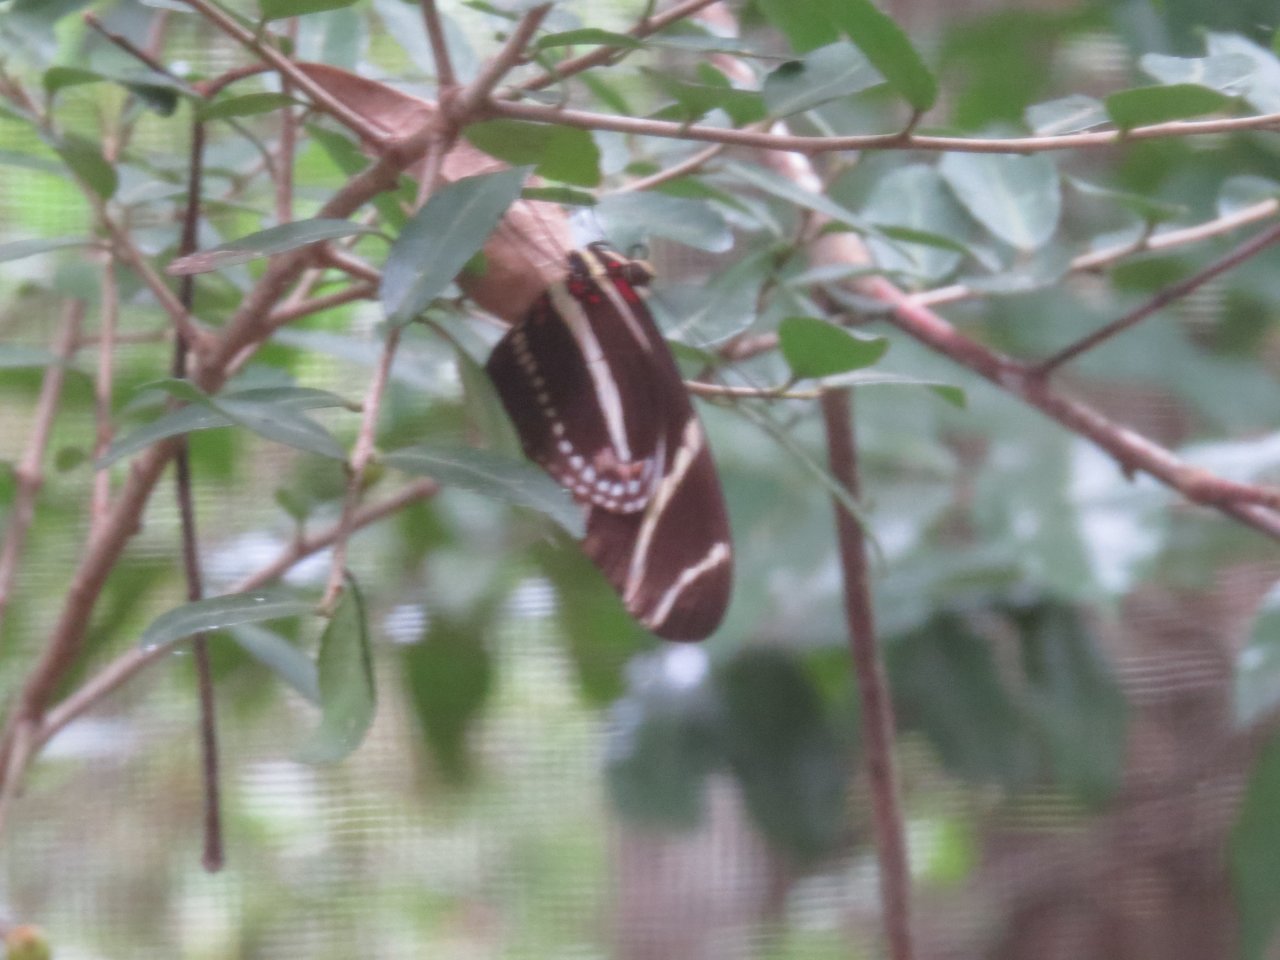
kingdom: Animalia
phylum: Arthropoda
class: Insecta
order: Lepidoptera
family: Nymphalidae
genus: Heliconius
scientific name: Heliconius charithonia
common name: Zebra Longwing
